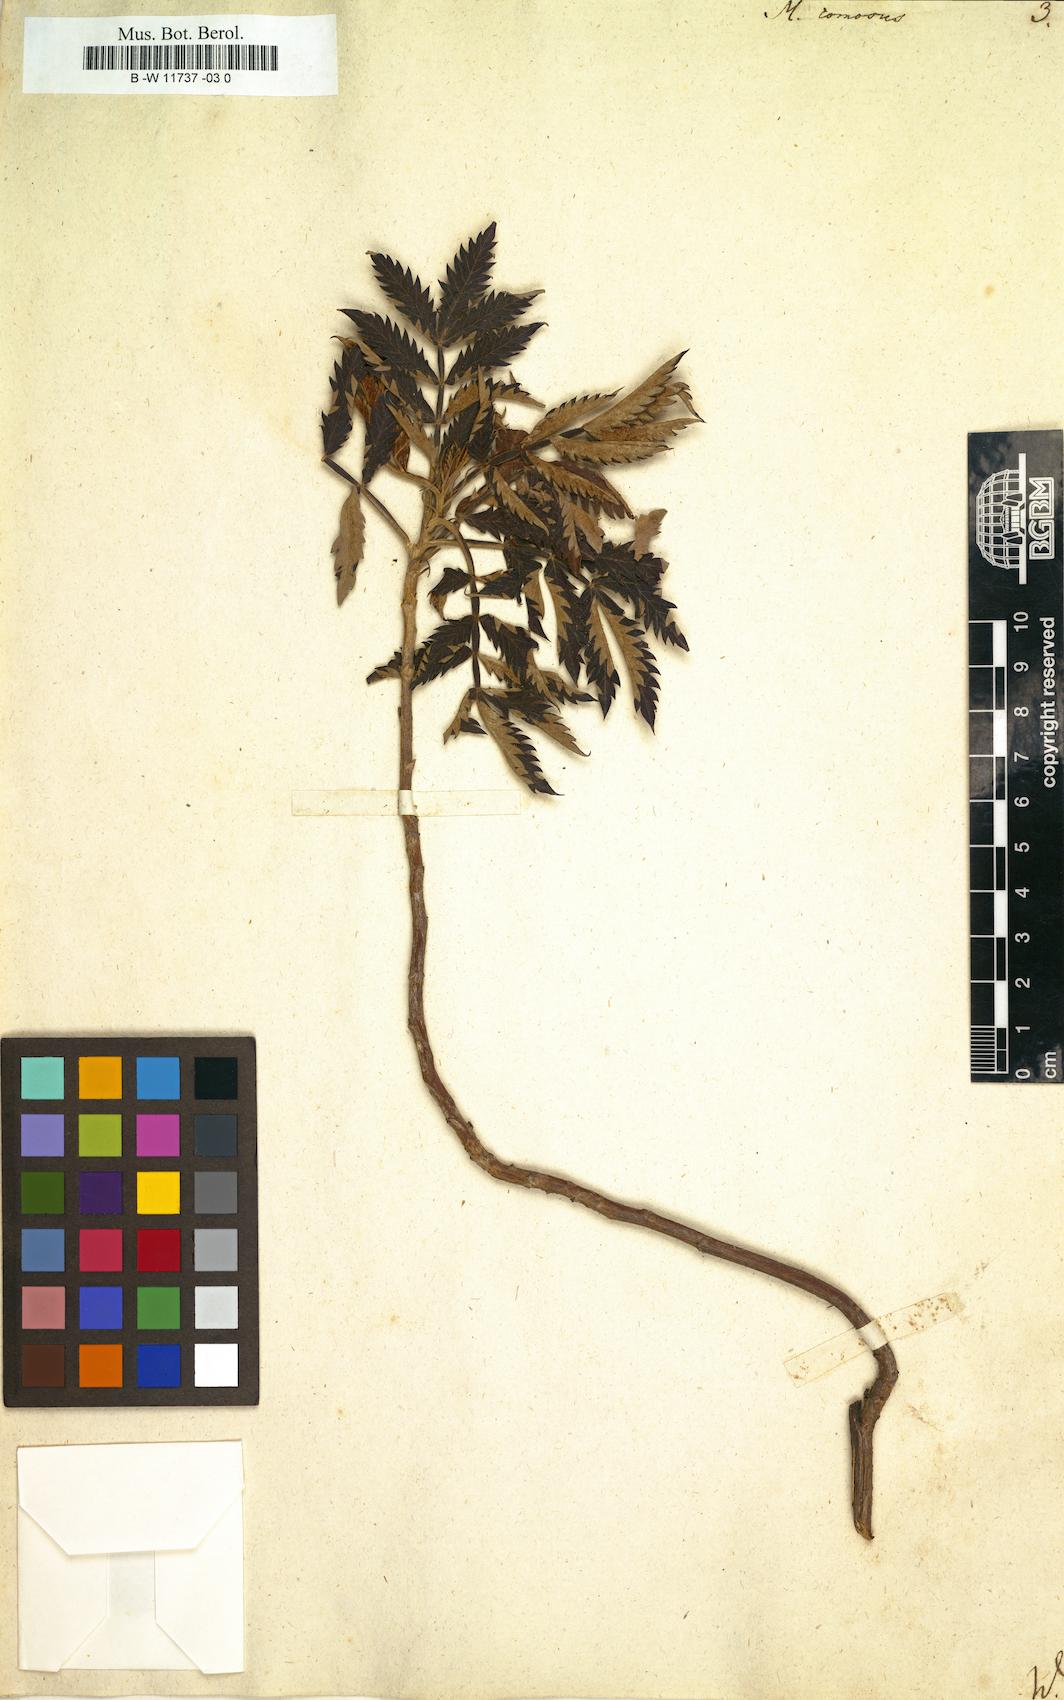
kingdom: Plantae
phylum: Tracheophyta
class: Magnoliopsida
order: Geraniales
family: Melianthaceae
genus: Melianthus
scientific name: Melianthus comosus
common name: Touch-me-not
